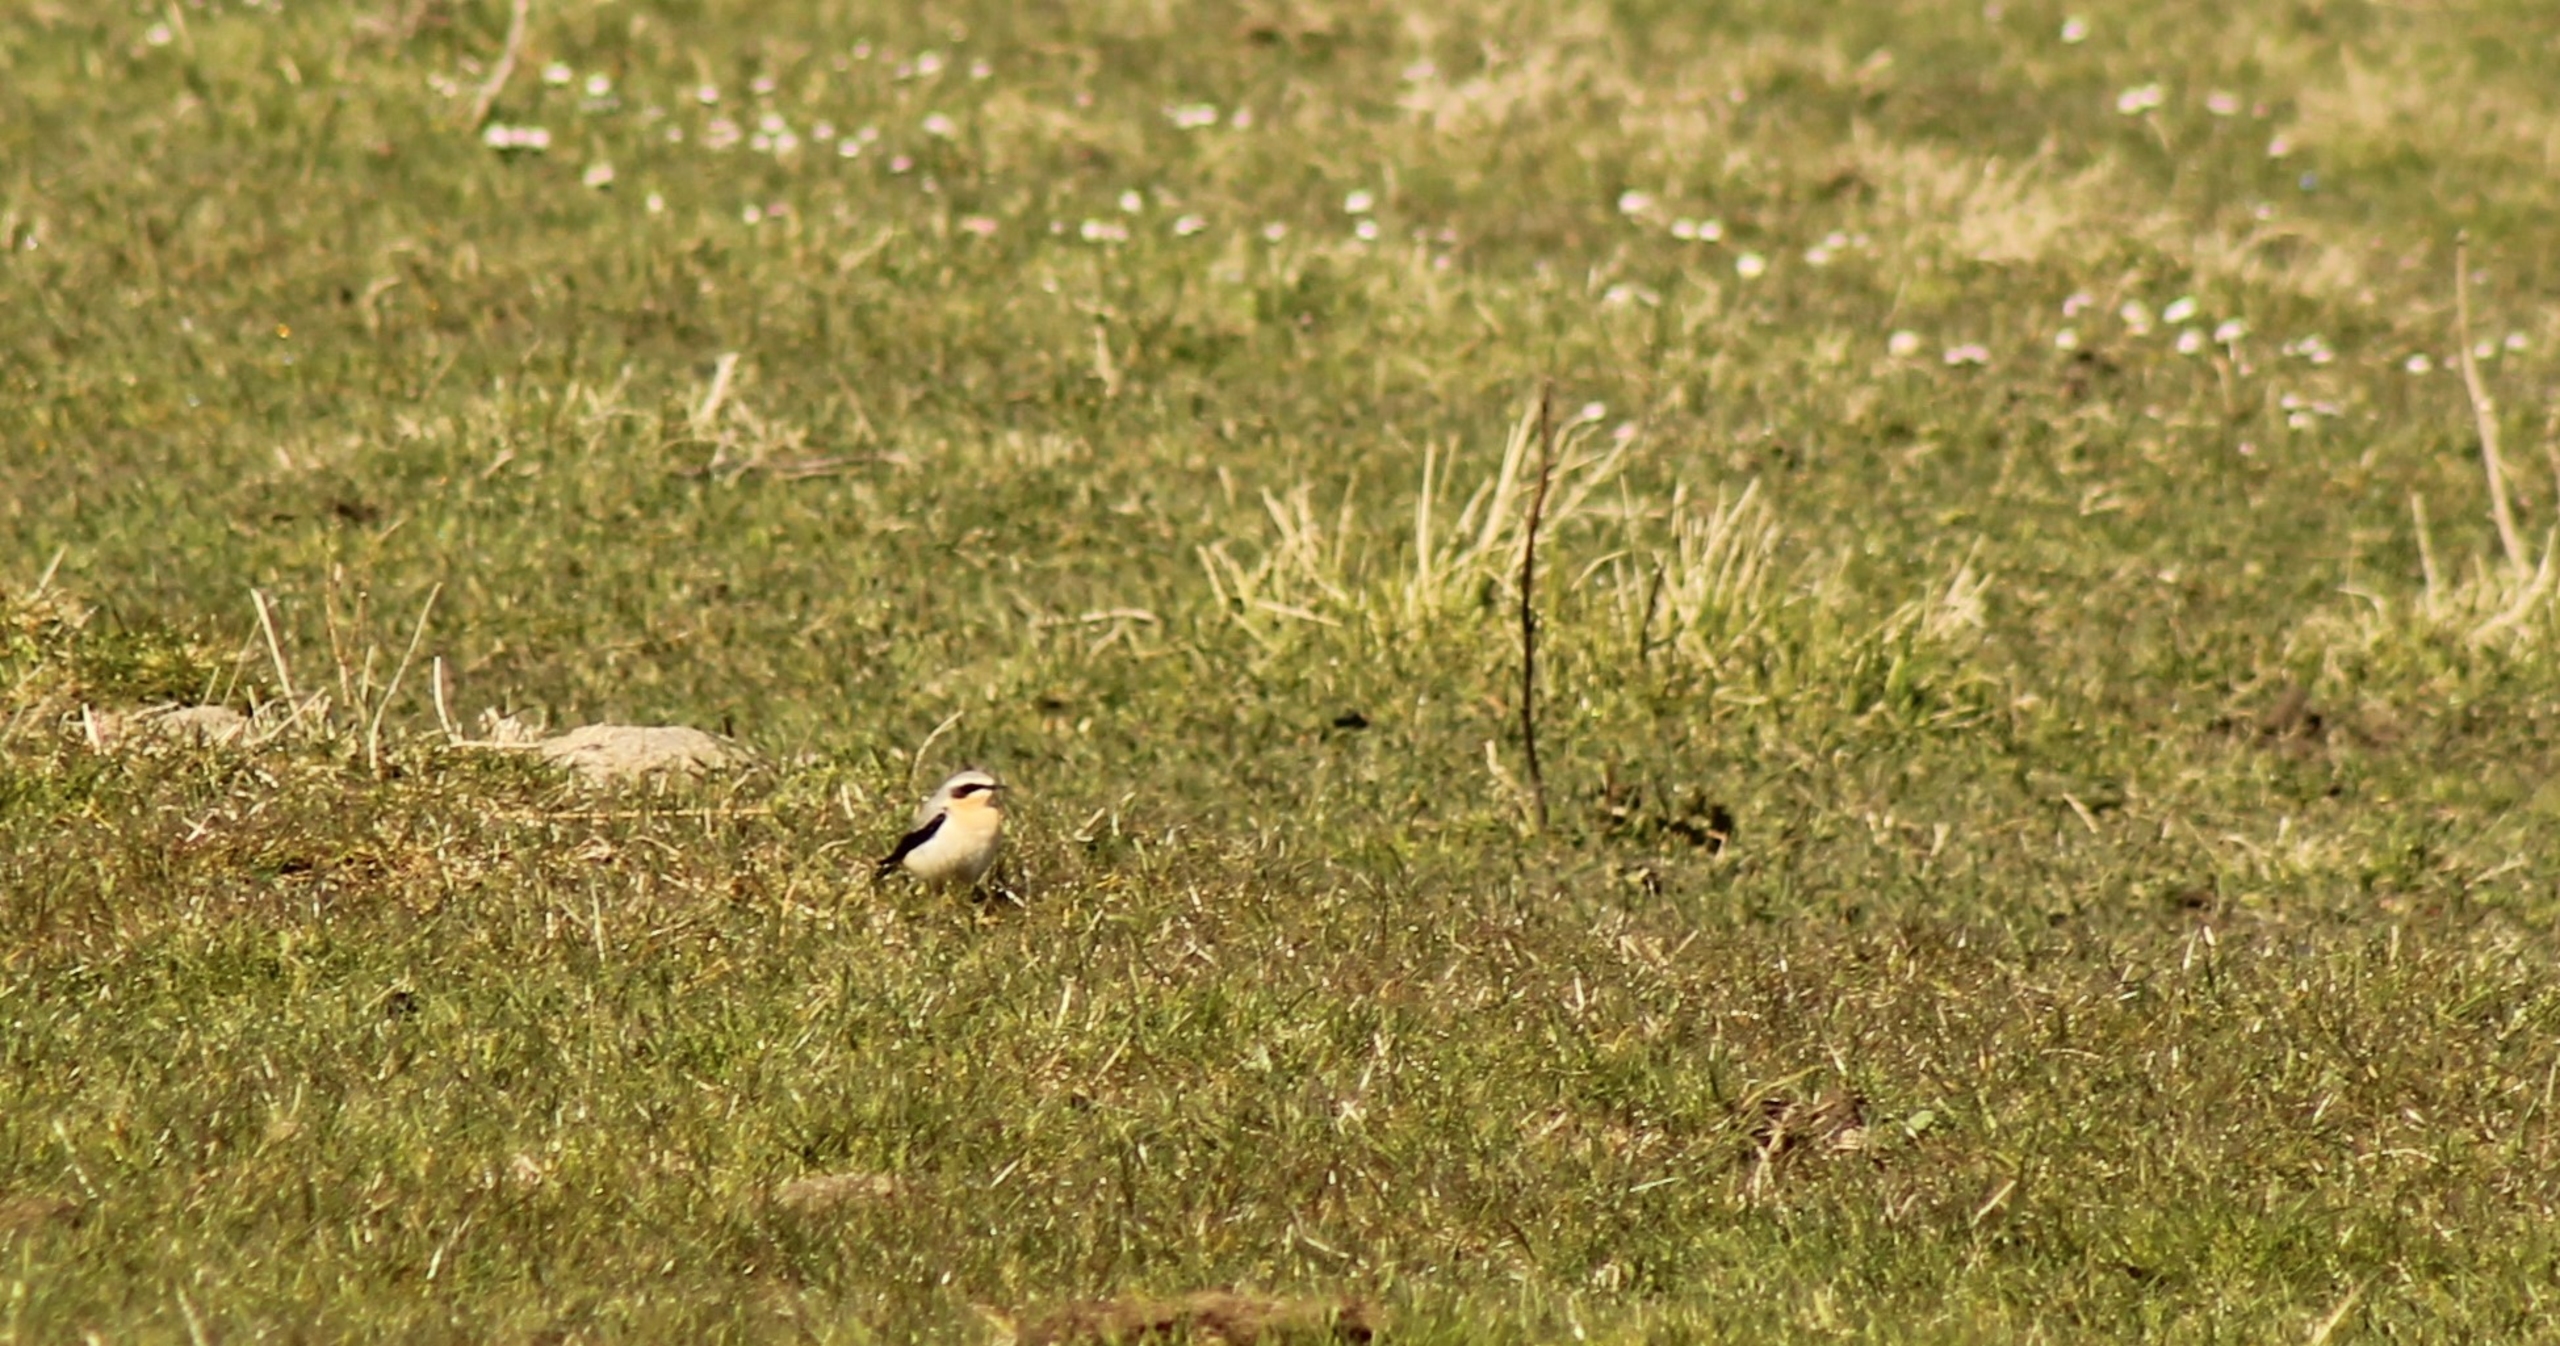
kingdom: Animalia
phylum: Chordata
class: Aves
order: Passeriformes
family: Muscicapidae
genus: Oenanthe
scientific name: Oenanthe oenanthe
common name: Stenpikker
